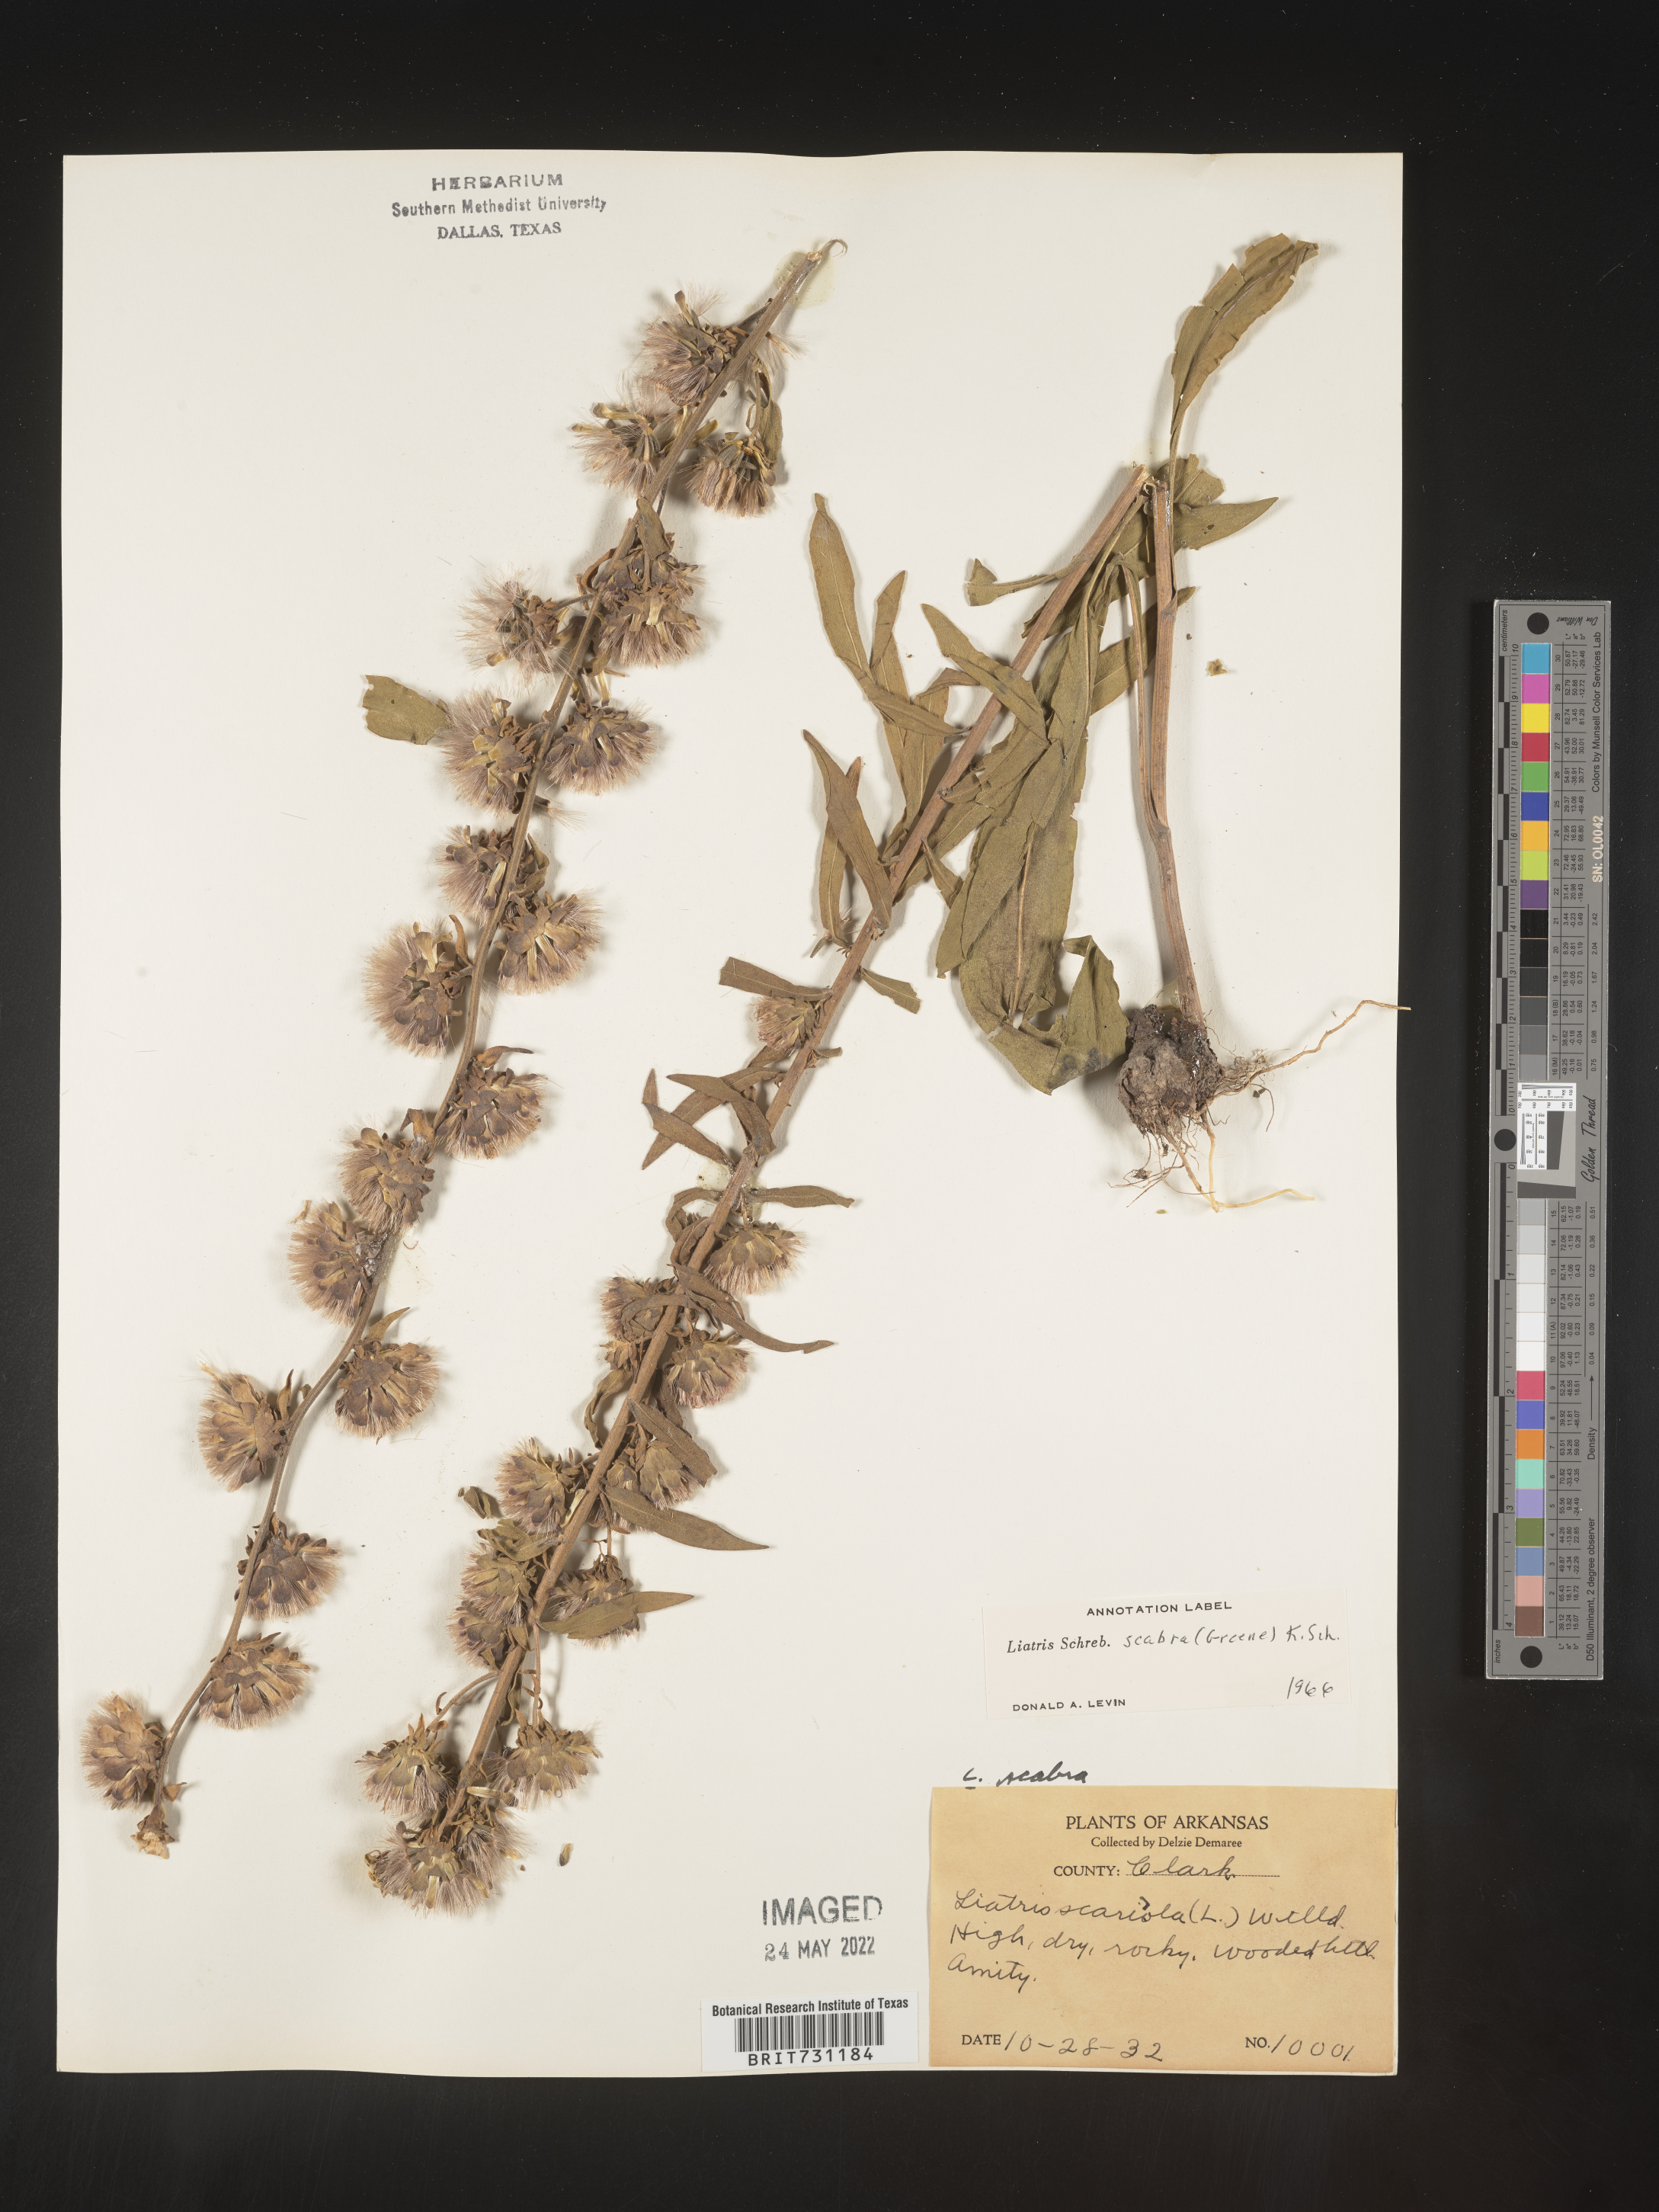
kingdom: Plantae
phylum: Tracheophyta
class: Magnoliopsida
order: Asterales
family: Asteraceae
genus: Liatris
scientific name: Liatris squarrulosa
